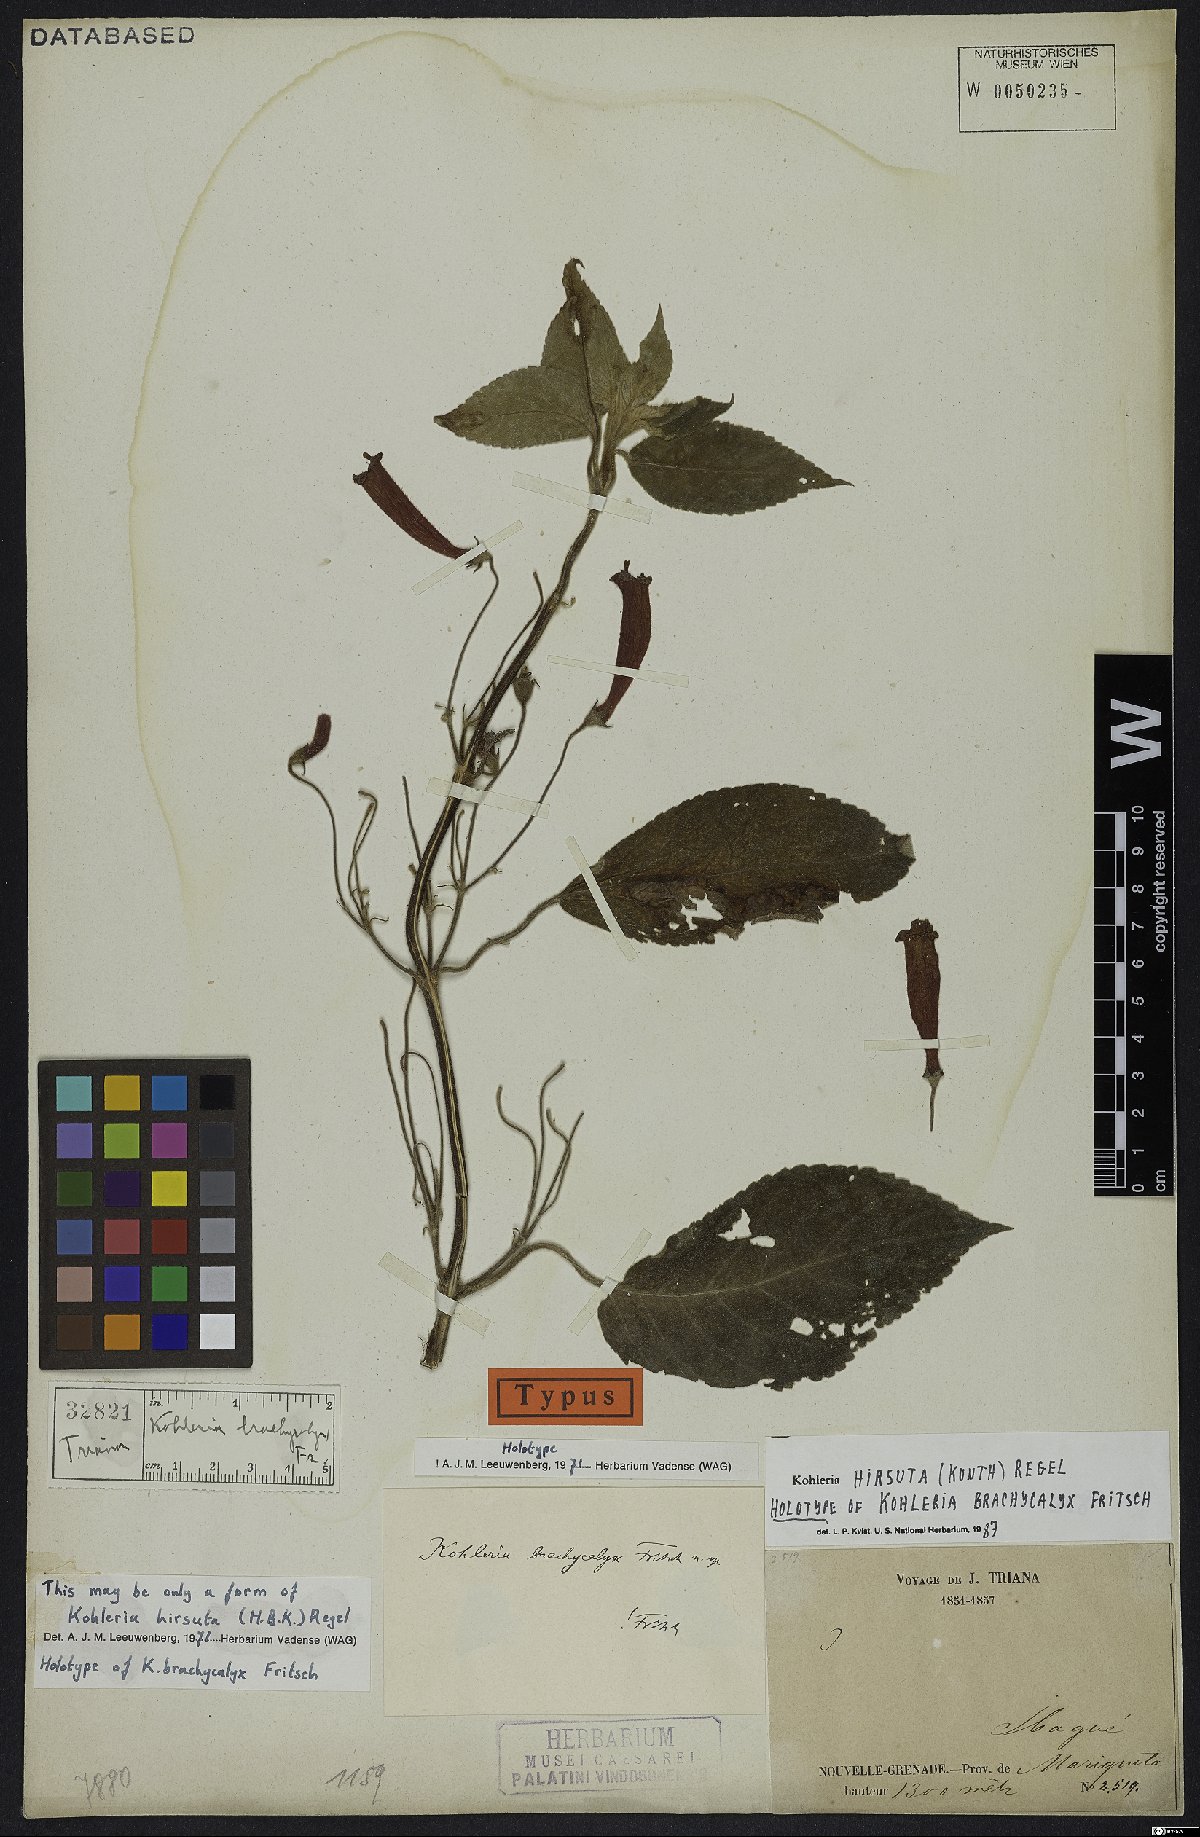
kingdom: Plantae
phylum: Tracheophyta
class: Magnoliopsida
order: Lamiales
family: Gesneriaceae
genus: Kohleria
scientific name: Kohleria hirsuta
